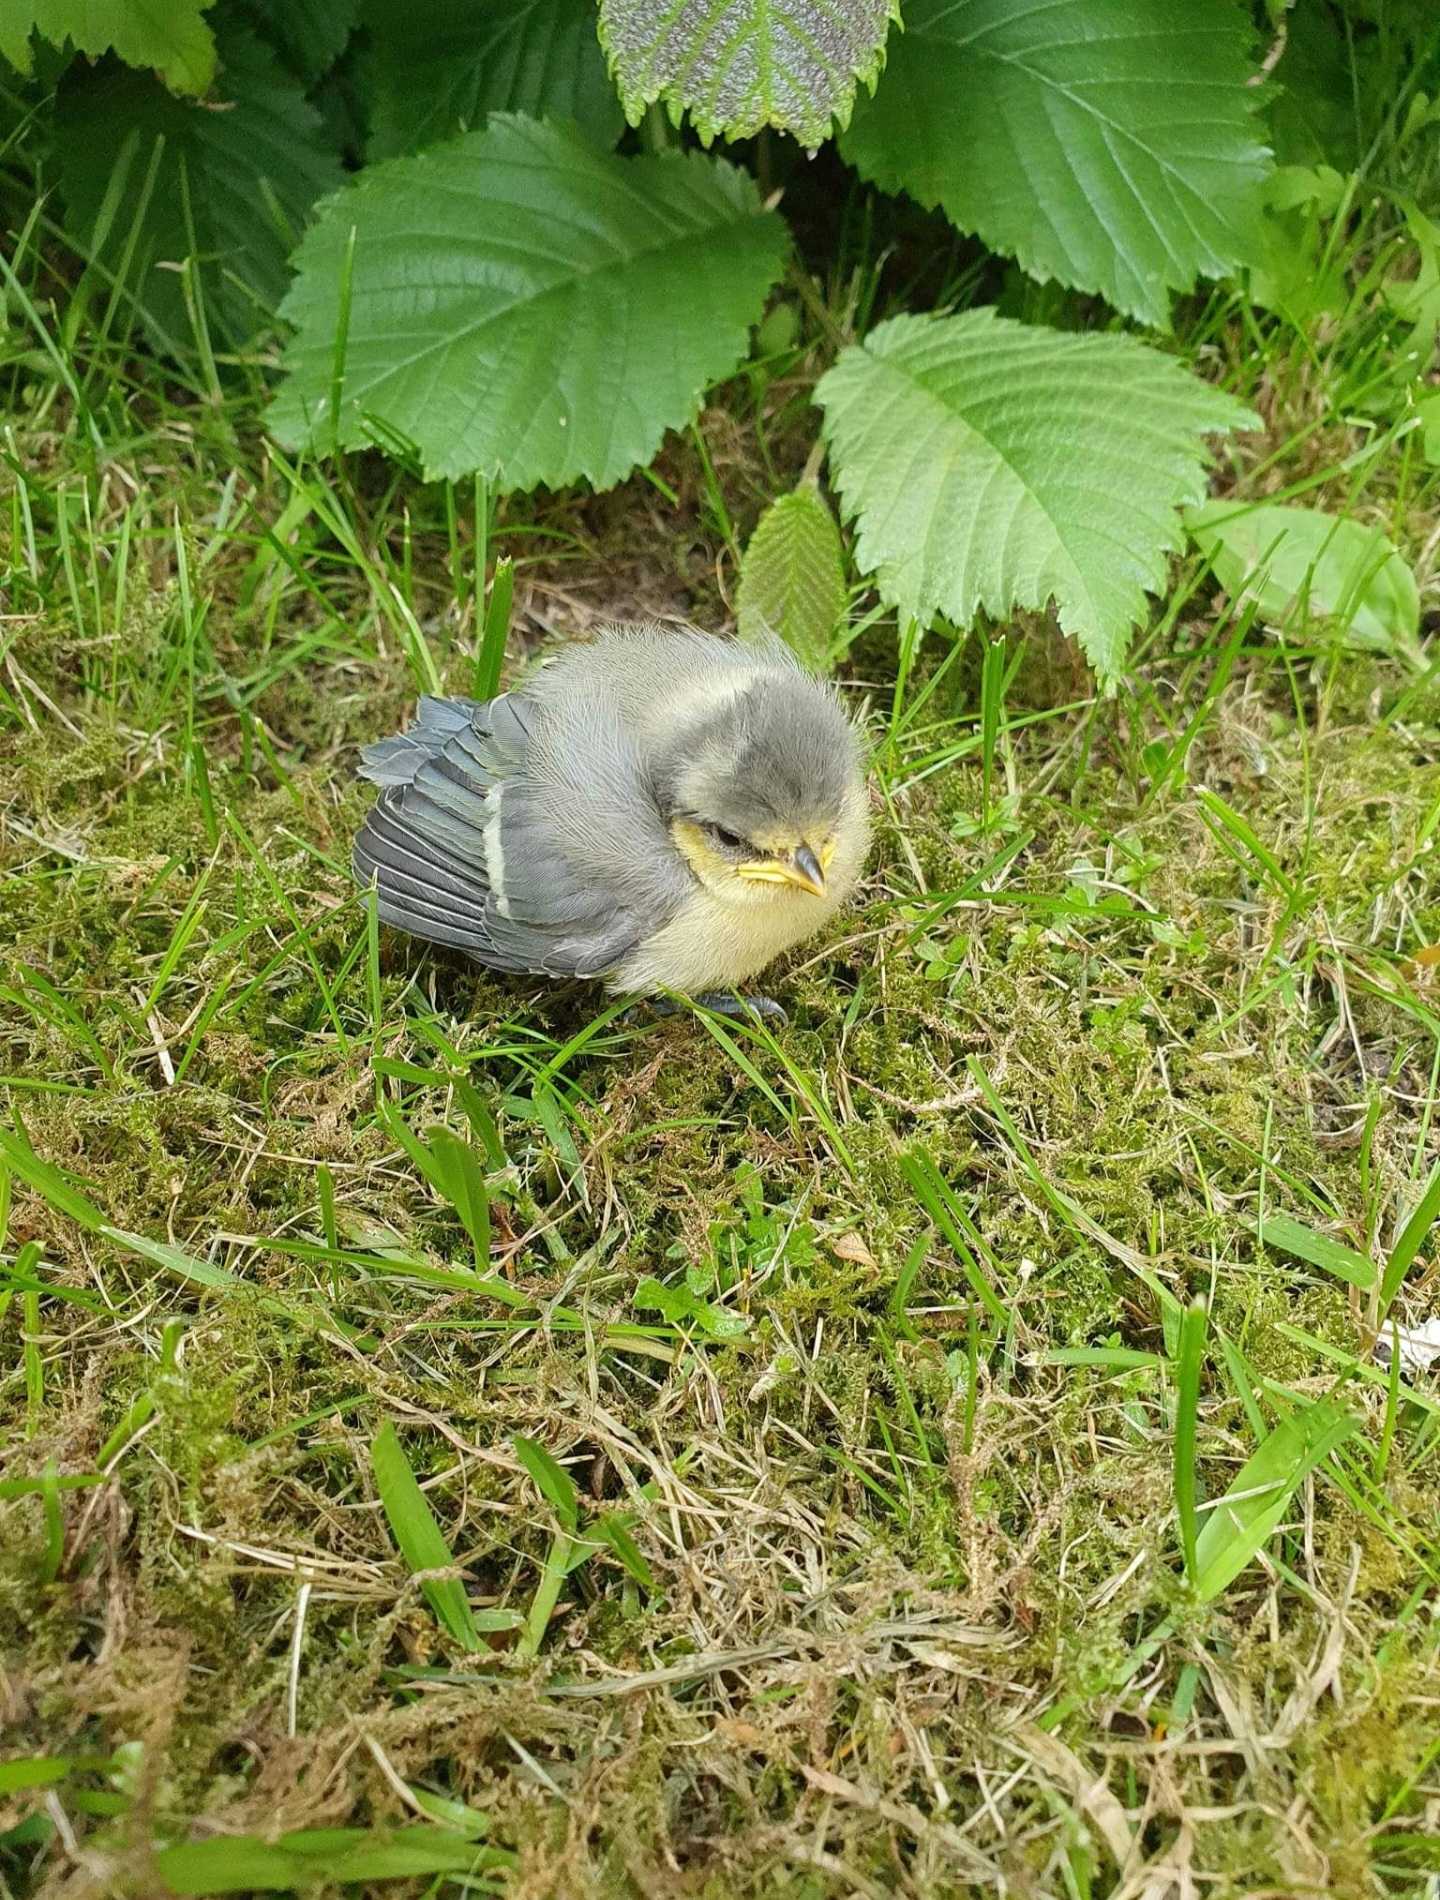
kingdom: Animalia
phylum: Chordata
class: Aves
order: Passeriformes
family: Paridae
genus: Cyanistes
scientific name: Cyanistes caeruleus
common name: Blåmejse
